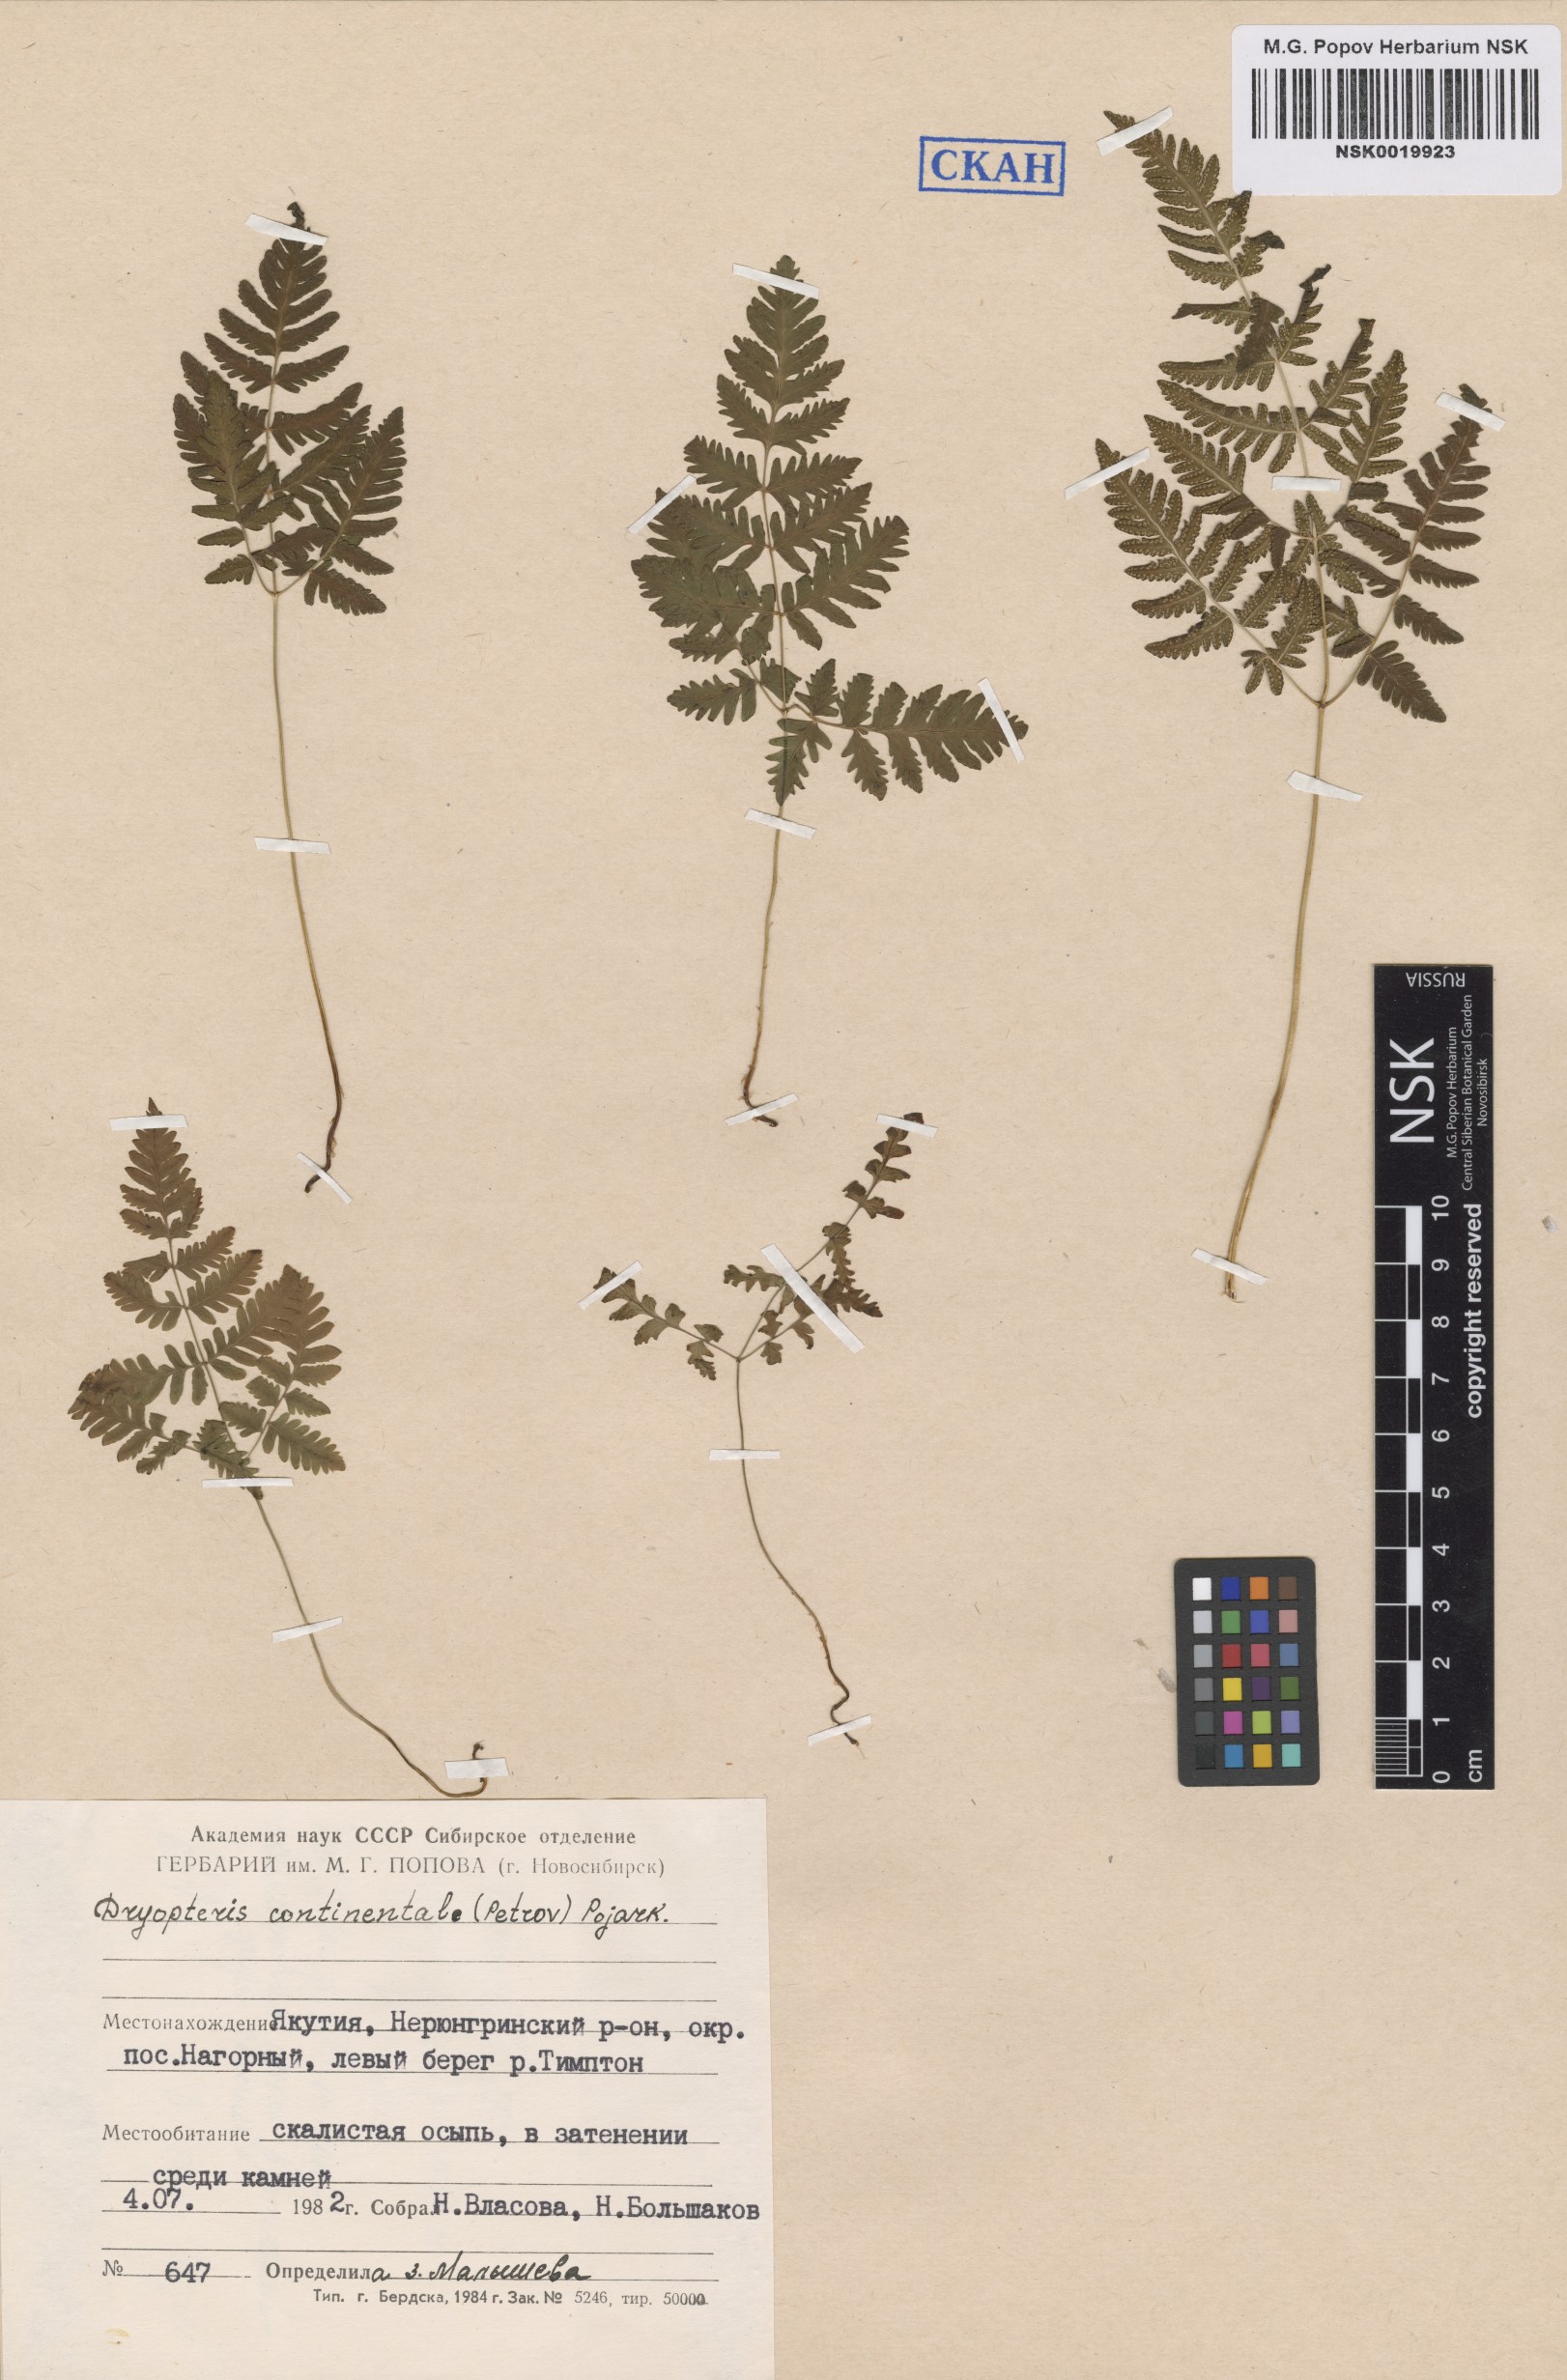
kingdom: Plantae
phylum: Tracheophyta
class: Polypodiopsida
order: Polypodiales
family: Cystopteridaceae
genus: Gymnocarpium
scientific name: Gymnocarpium continentale
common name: Asian oak fern
